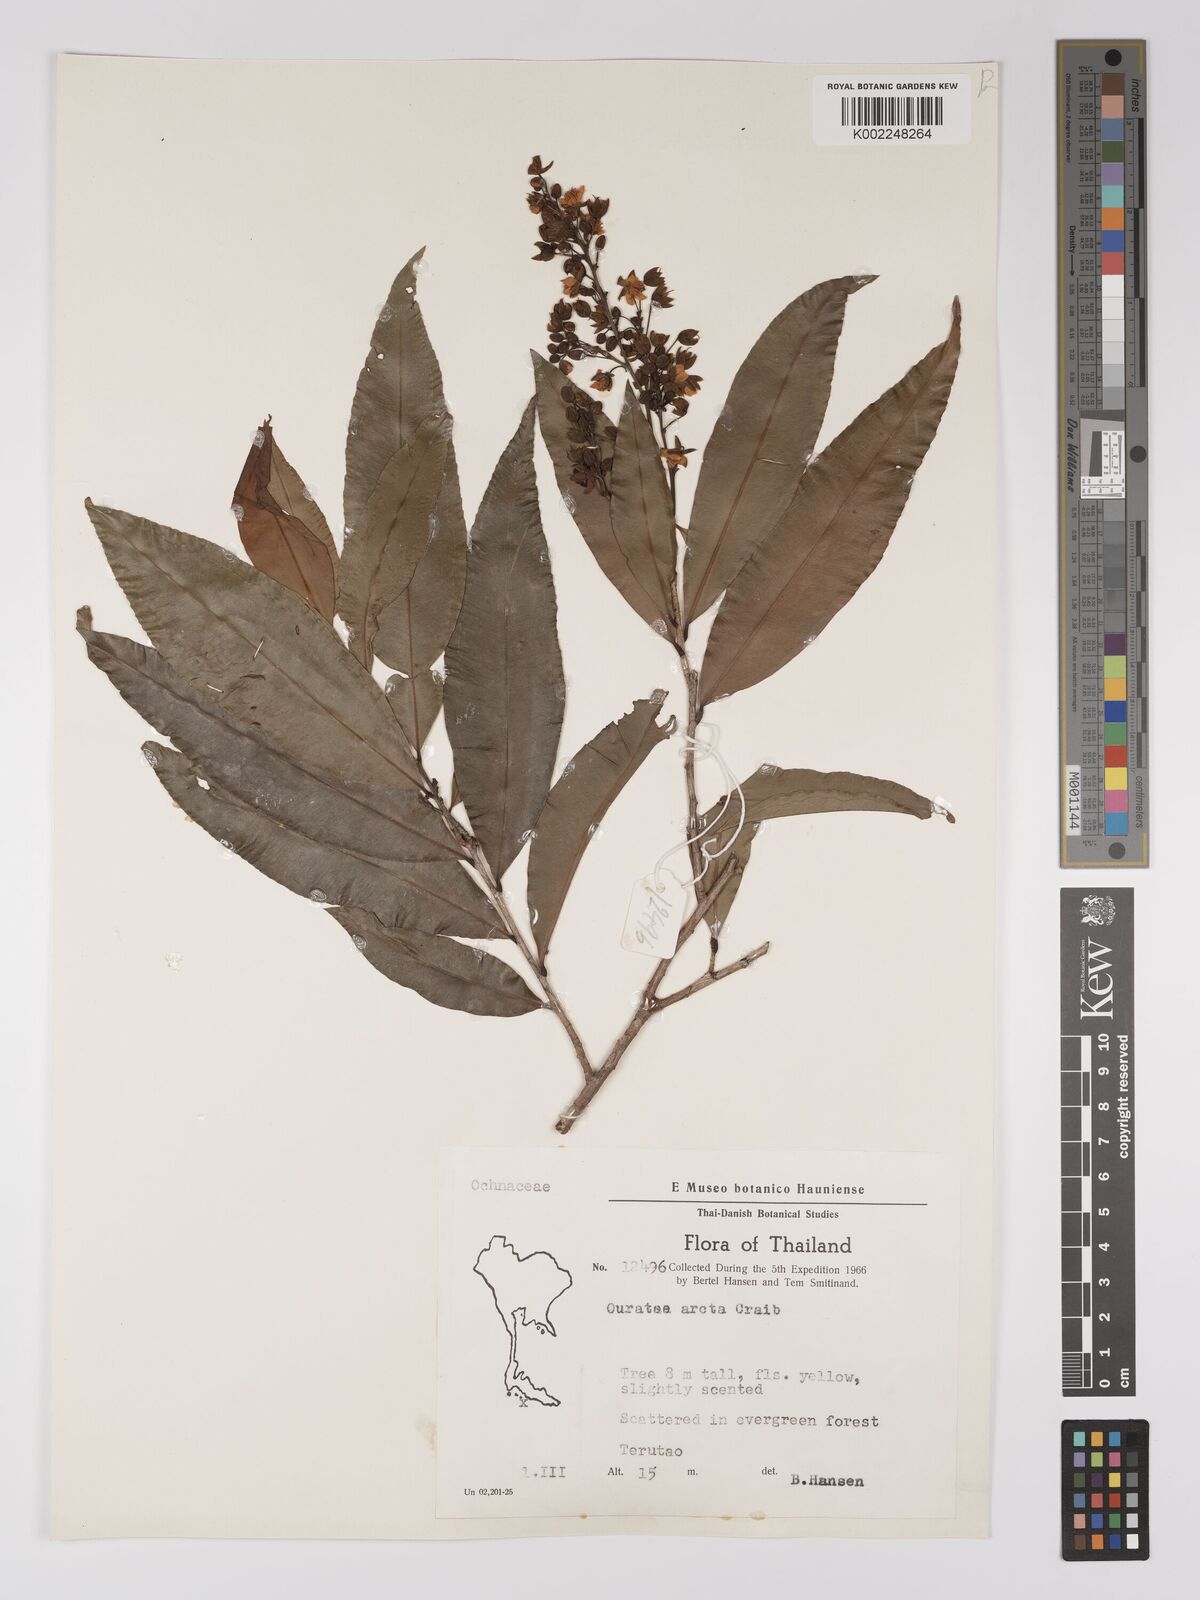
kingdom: Plantae
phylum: Tracheophyta
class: Magnoliopsida
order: Malpighiales
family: Ochnaceae
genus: Gomphia
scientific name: Gomphia serrata
